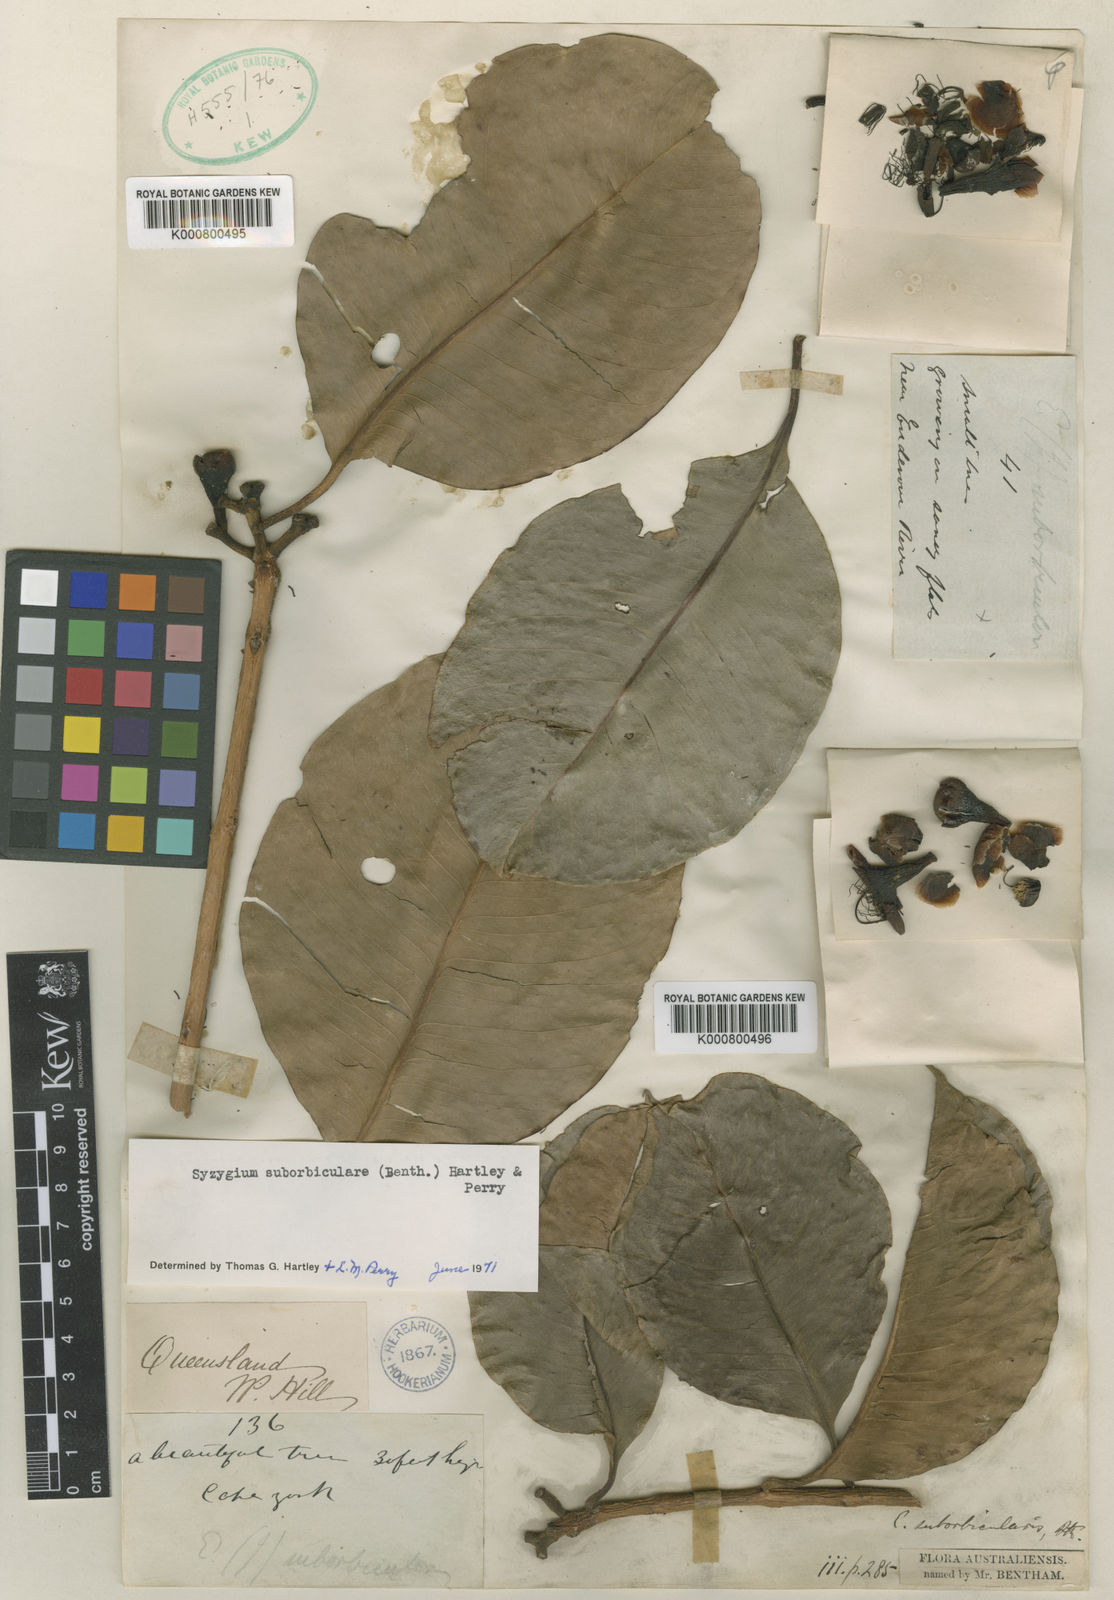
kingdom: Plantae
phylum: Tracheophyta
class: Magnoliopsida
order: Myrtales
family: Myrtaceae
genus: Syzygium
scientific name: Syzygium suborbiculare
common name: Red bush apple
